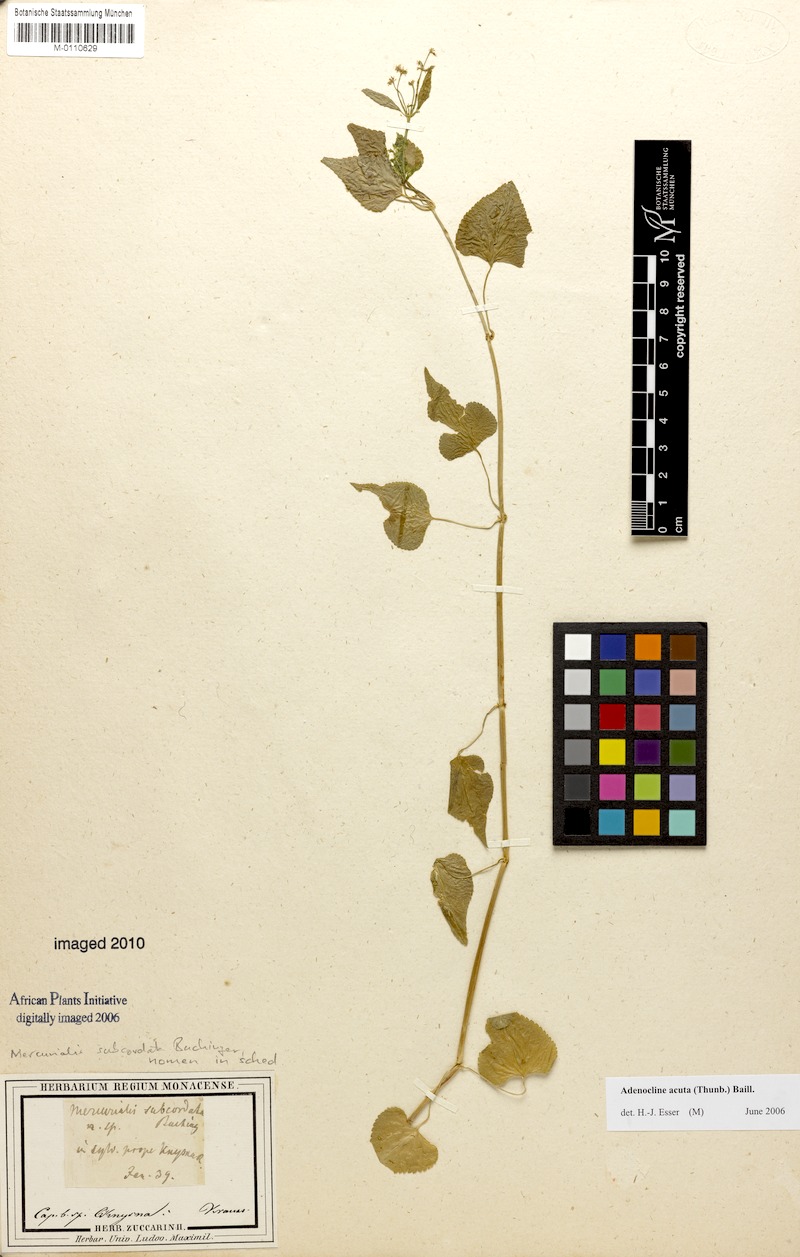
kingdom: Plantae
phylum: Tracheophyta
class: Magnoliopsida
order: Malpighiales
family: Euphorbiaceae
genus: Adenocline
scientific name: Adenocline acuta
